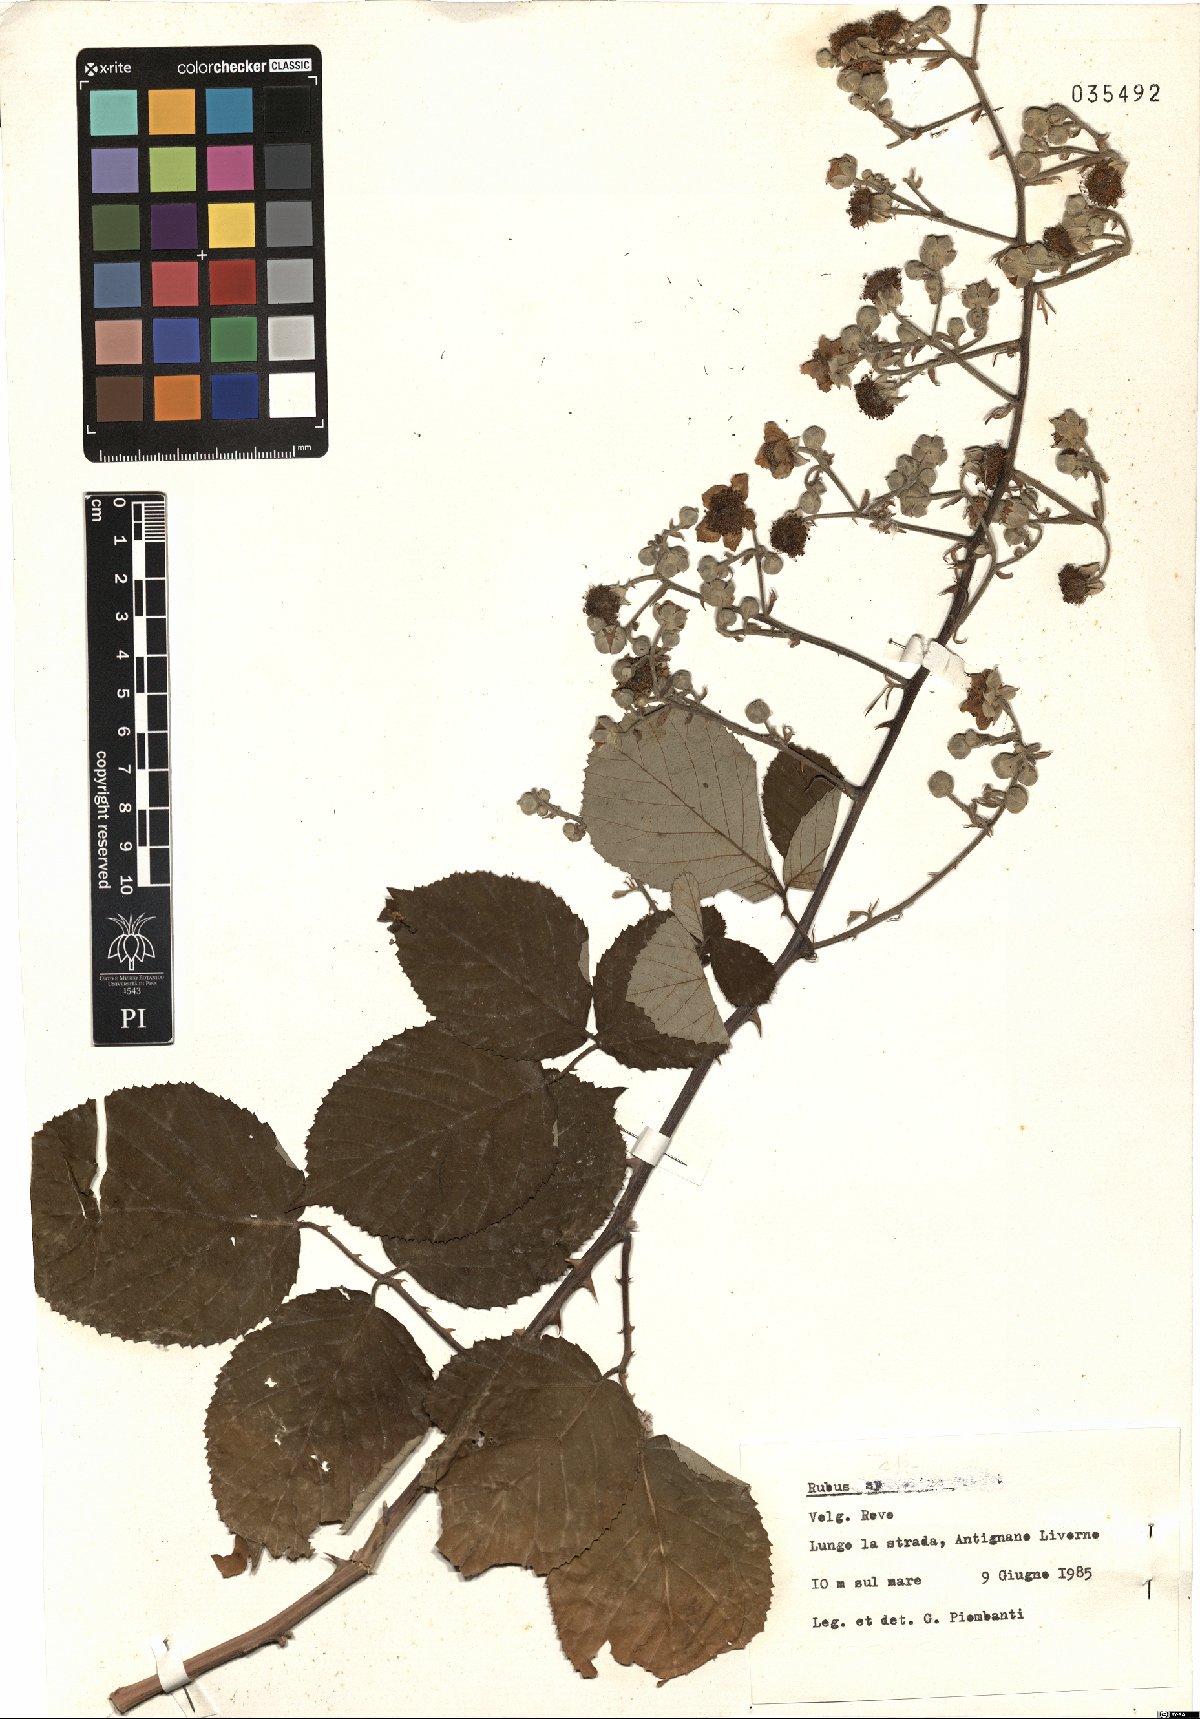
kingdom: Plantae
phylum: Tracheophyta
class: Magnoliopsida
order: Rosales
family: Rosaceae
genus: Rubus
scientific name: Rubus
